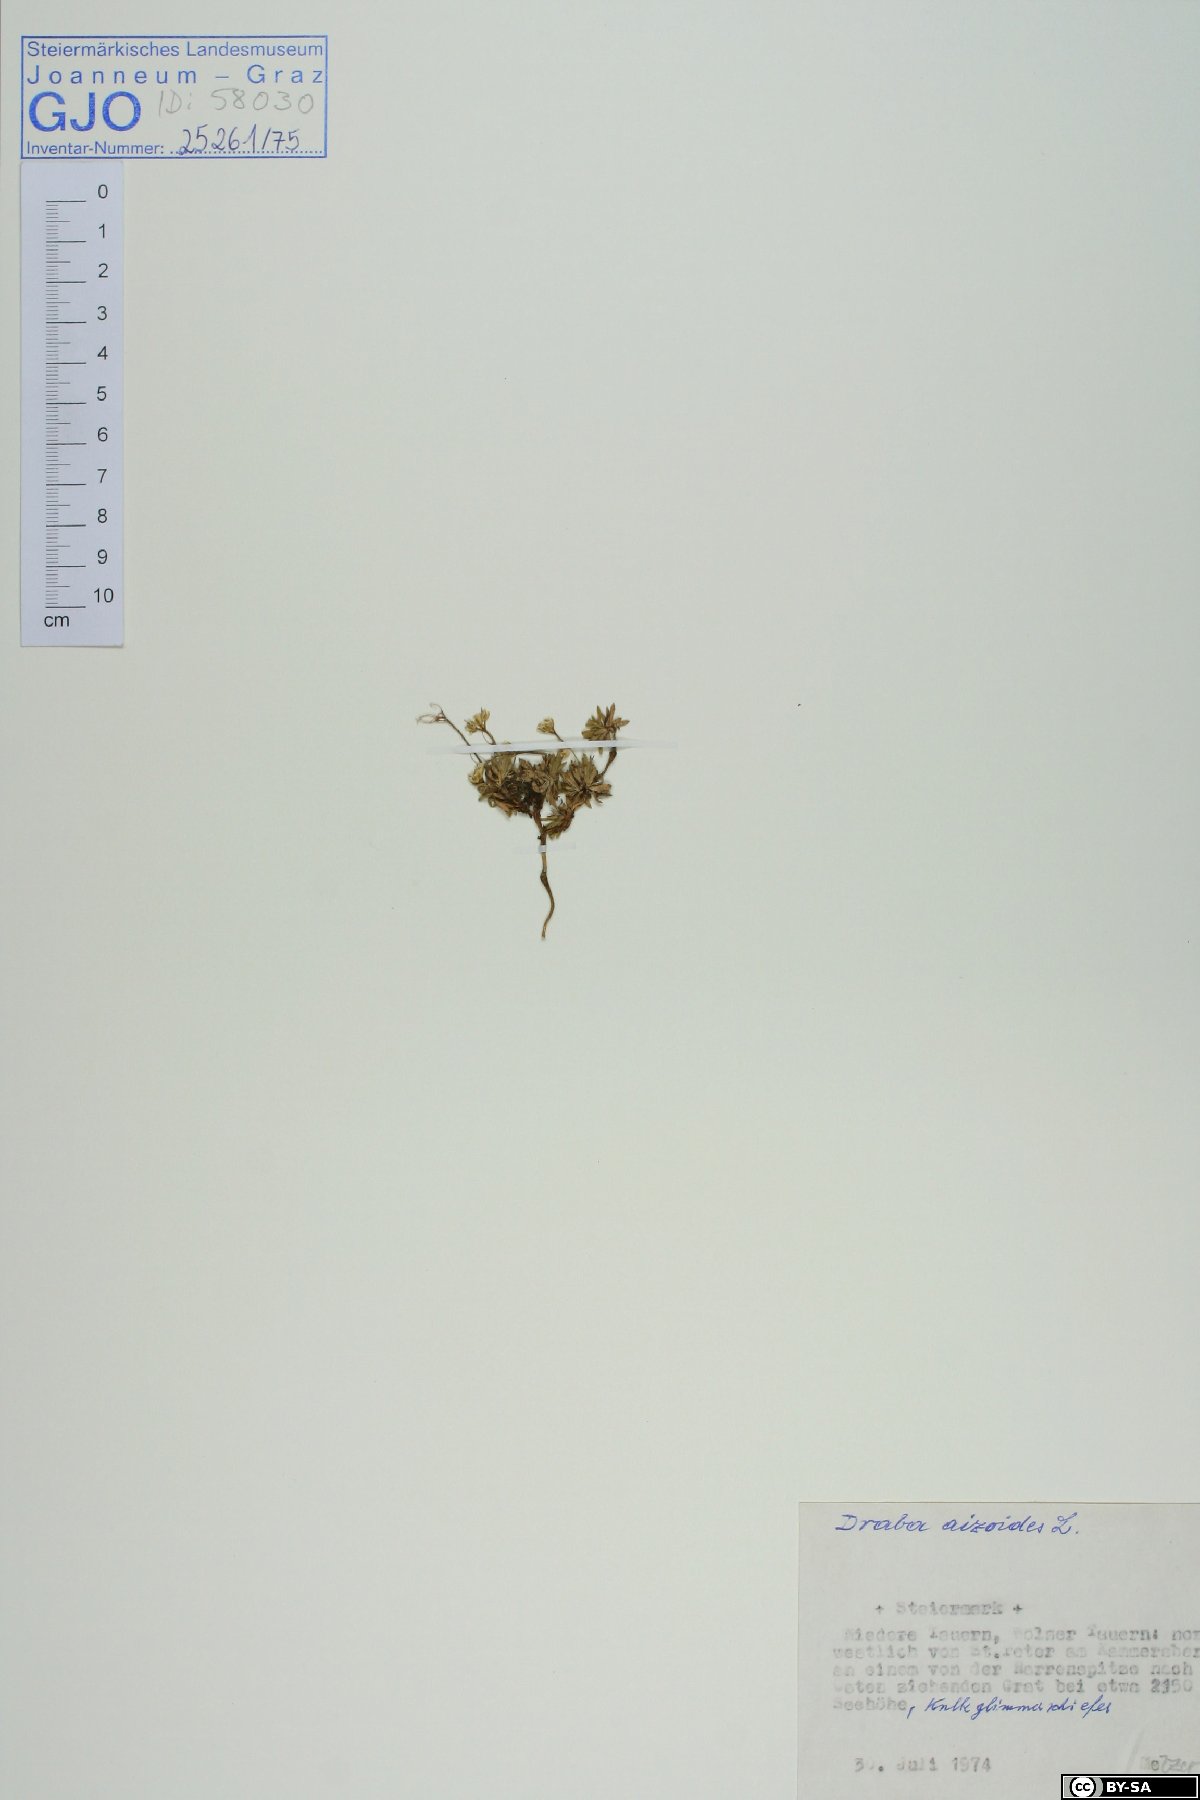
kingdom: Plantae
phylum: Tracheophyta
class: Magnoliopsida
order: Brassicales
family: Brassicaceae
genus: Draba
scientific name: Draba aizoides
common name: Yellow whitlowgrass
